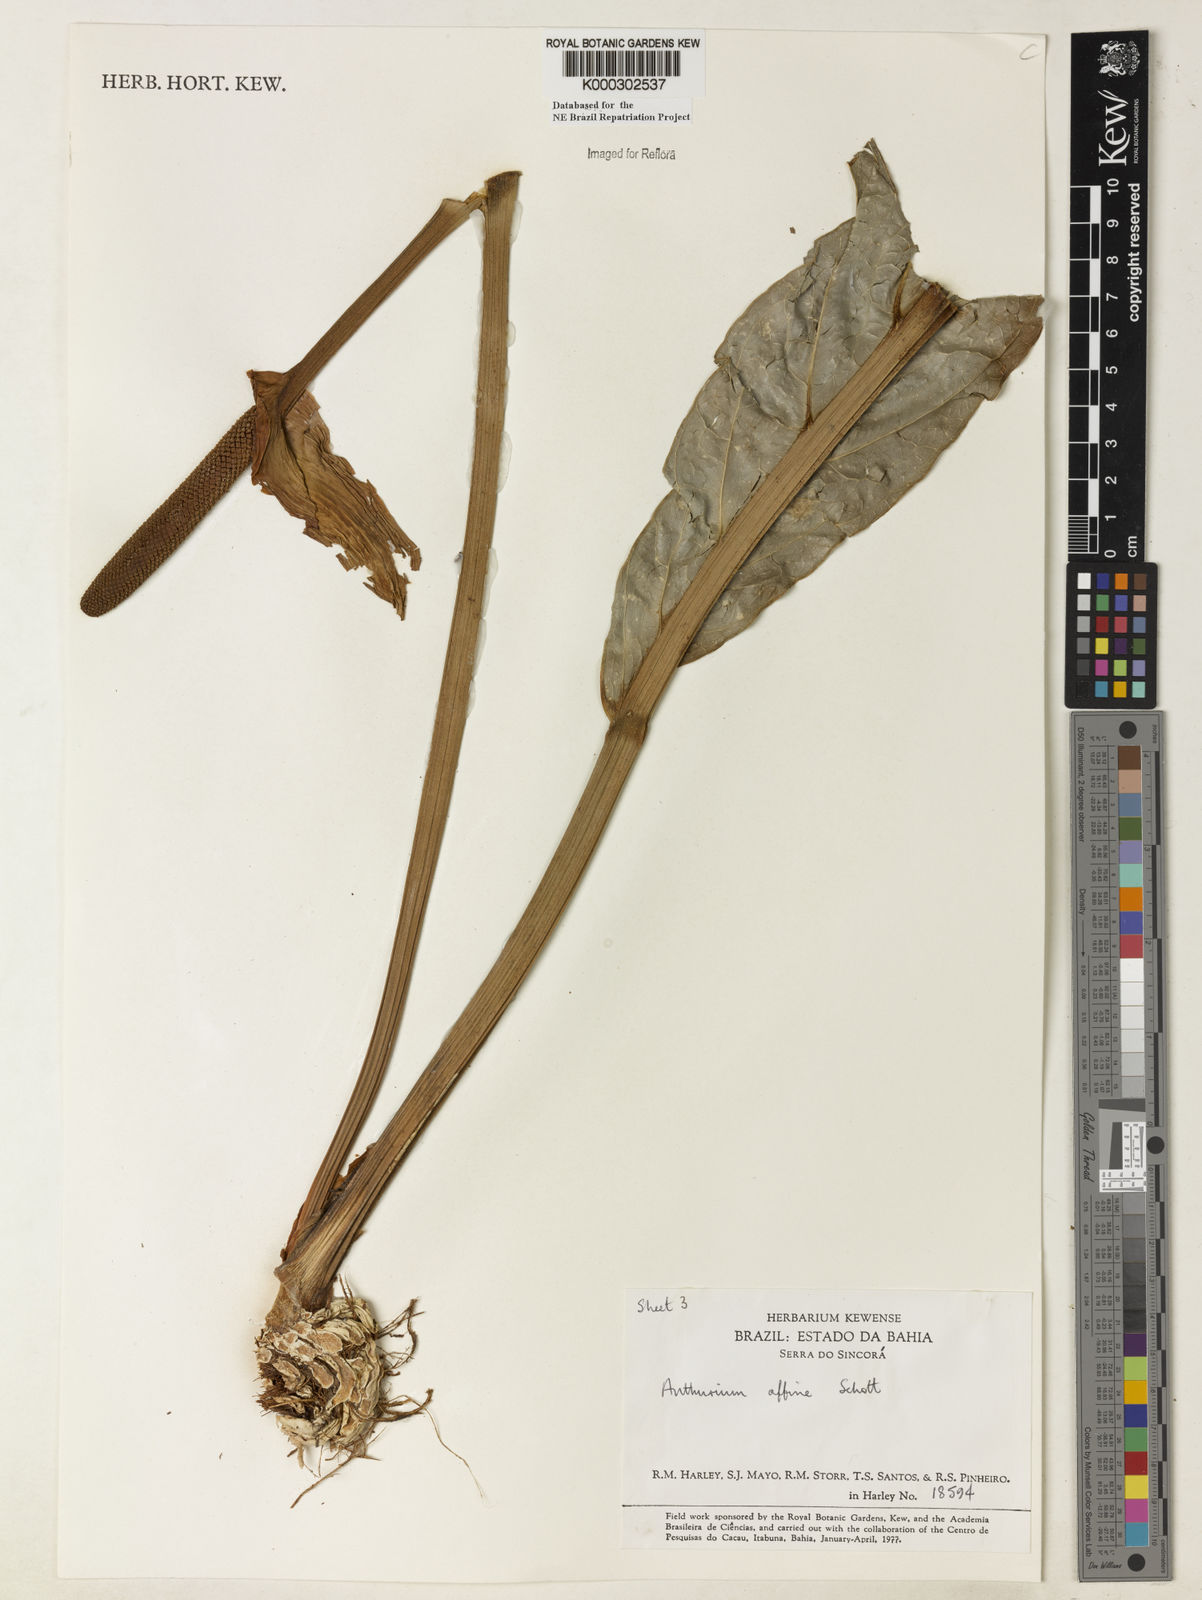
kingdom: Plantae
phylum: Tracheophyta
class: Liliopsida
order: Alismatales
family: Araceae
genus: Anthurium
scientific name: Anthurium affine
